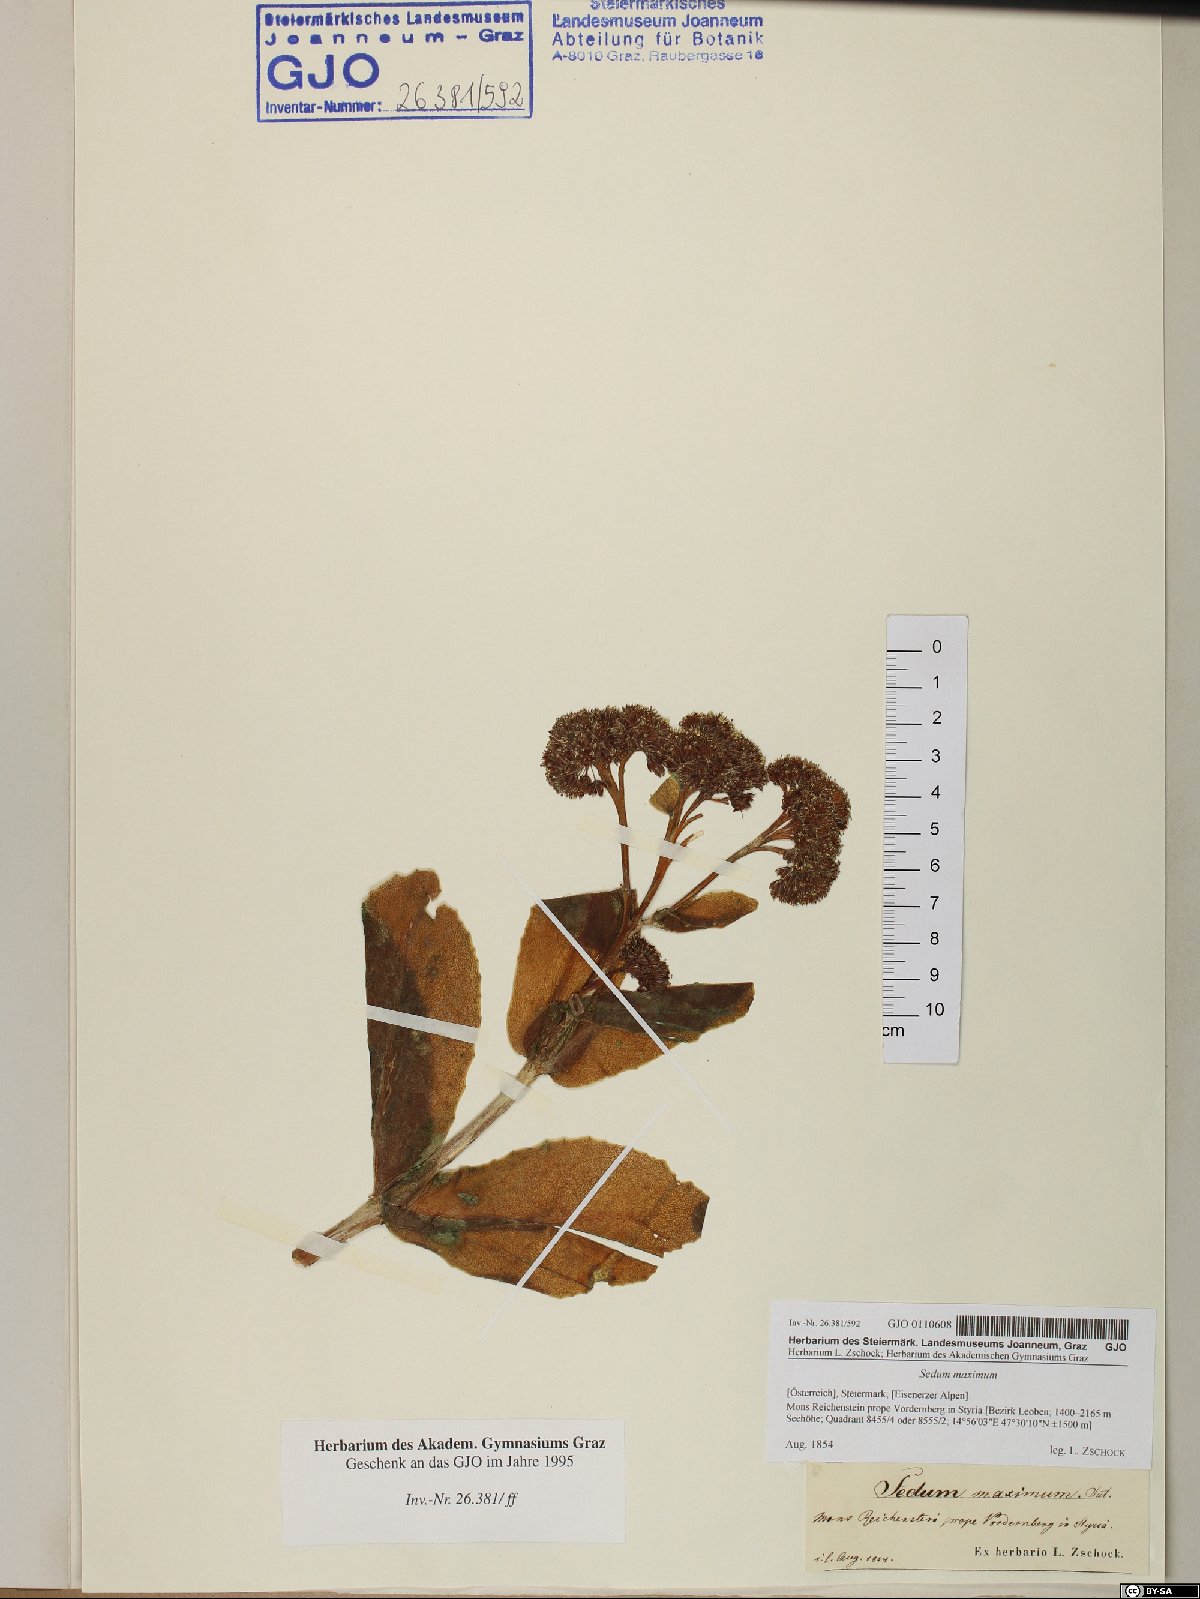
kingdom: Plantae
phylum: Tracheophyta
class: Magnoliopsida
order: Saxifragales
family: Crassulaceae
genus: Hylotelephium
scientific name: Hylotelephium maximum
